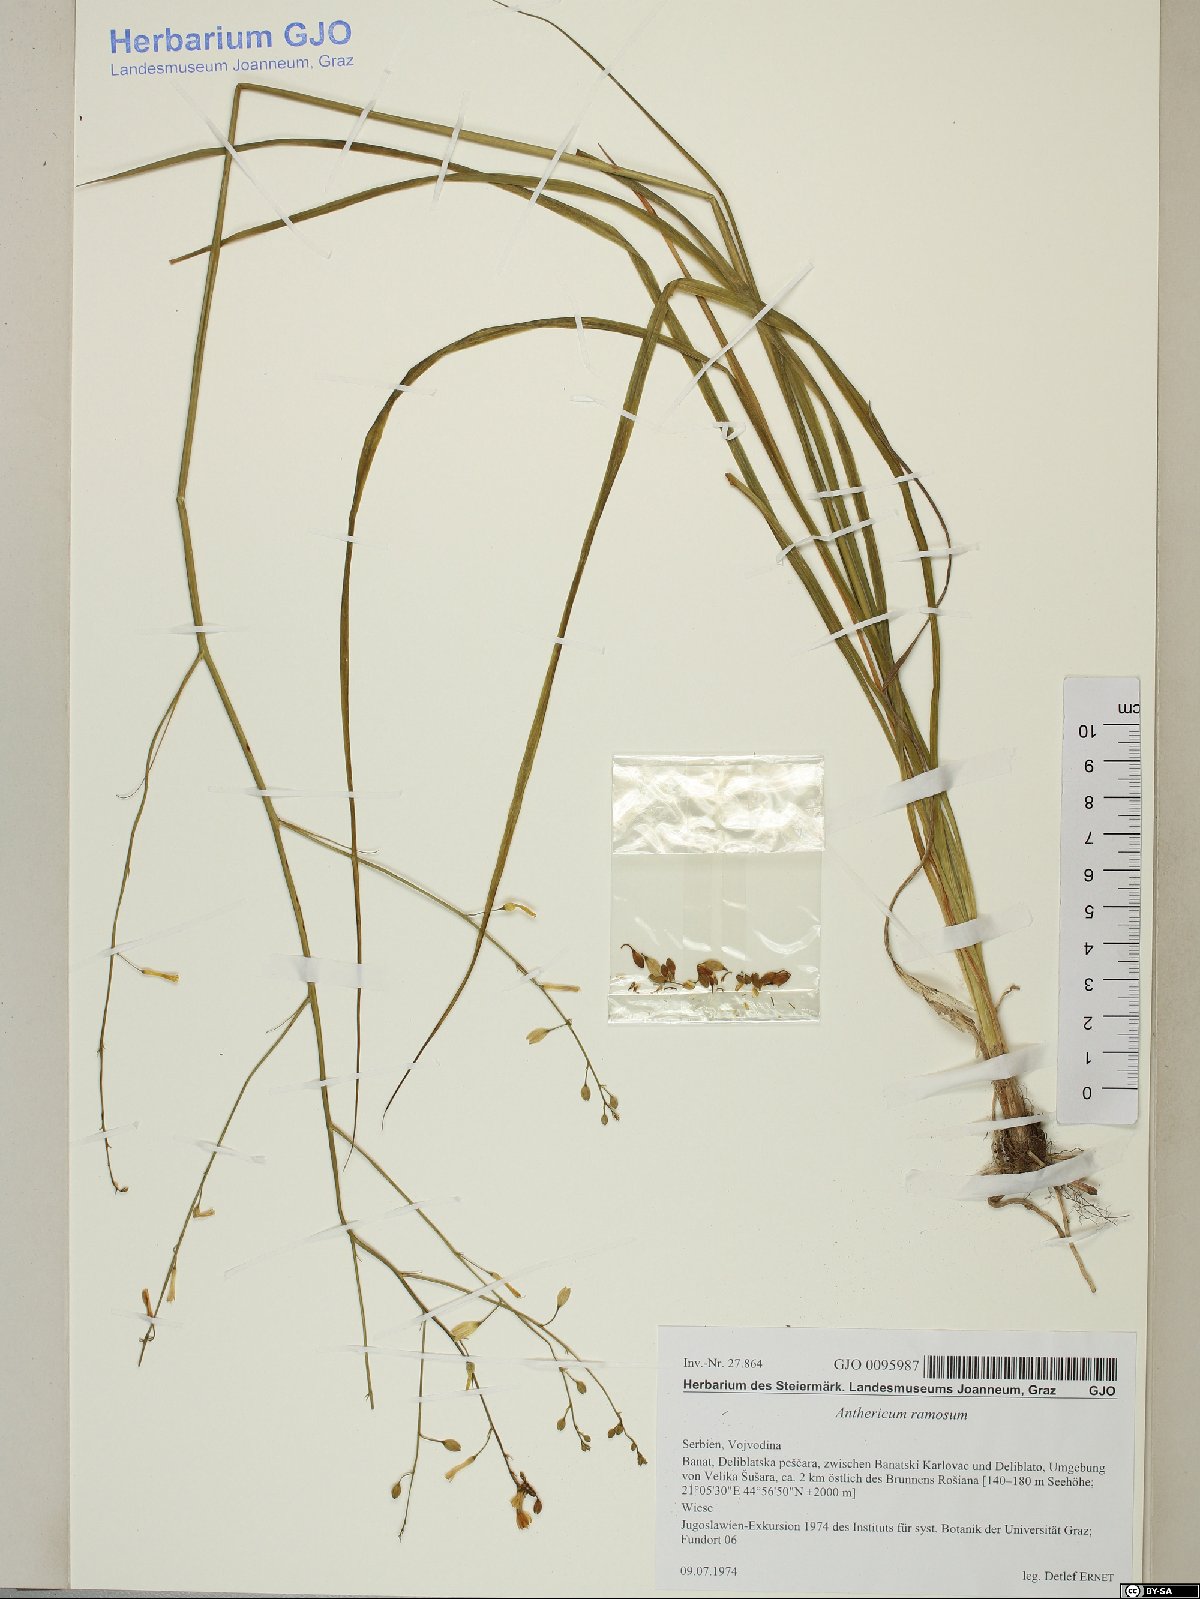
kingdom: Plantae
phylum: Tracheophyta
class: Liliopsida
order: Asparagales
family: Asparagaceae
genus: Anthericum
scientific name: Anthericum ramosum
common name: Branched st. bernard's-lily
